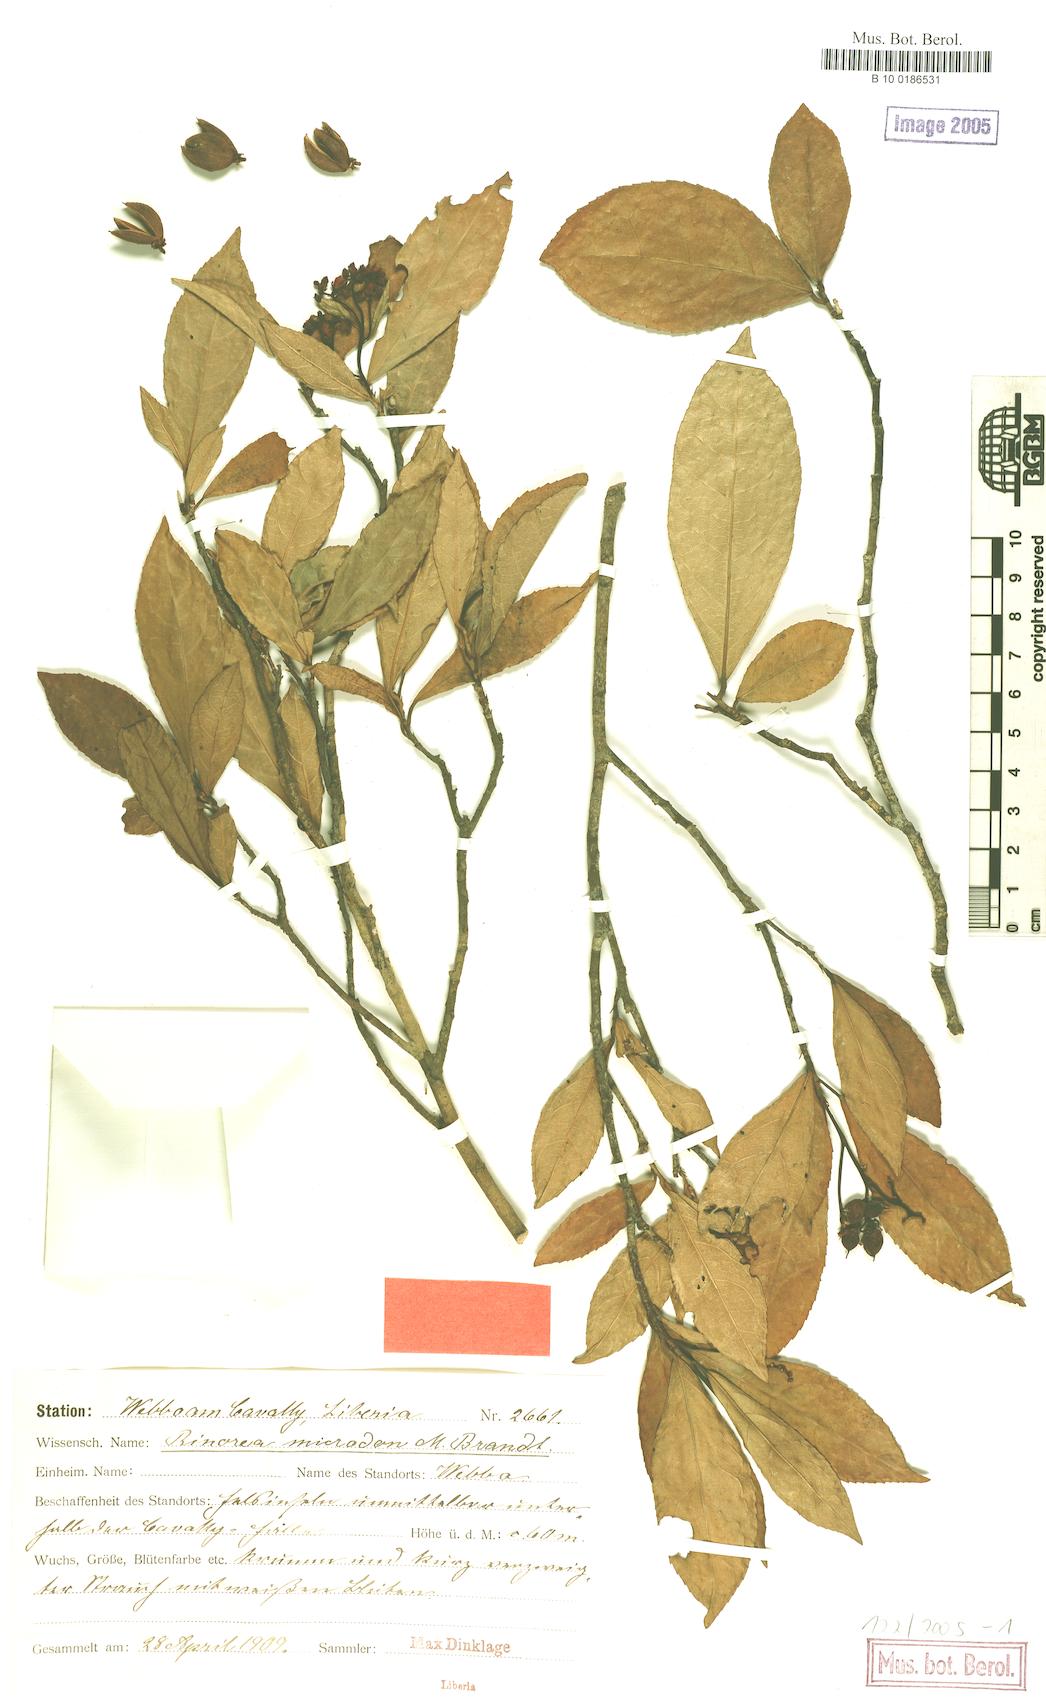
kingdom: Plantae
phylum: Tracheophyta
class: Magnoliopsida
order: Malpighiales
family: Violaceae
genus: Rinorea
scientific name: Rinorea microdon
